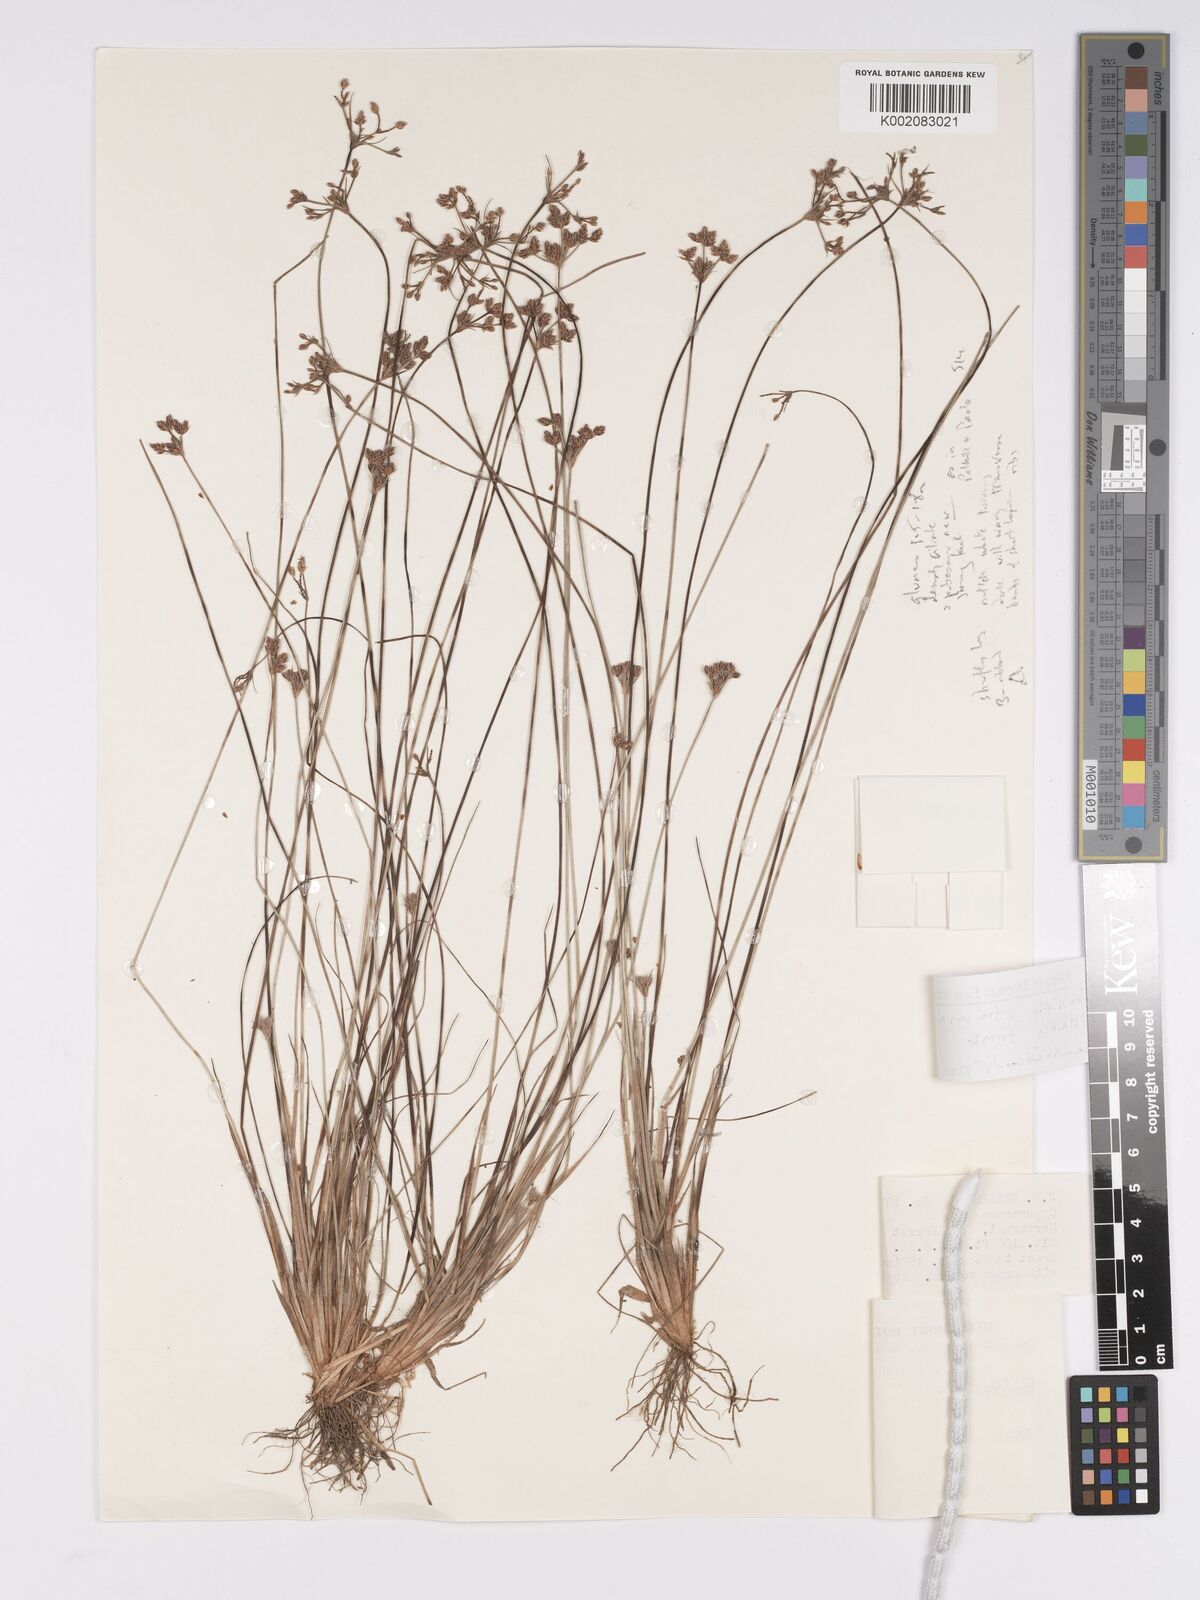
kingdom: Plantae
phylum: Tracheophyta
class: Liliopsida
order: Poales
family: Cyperaceae
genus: Bulbostylis
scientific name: Bulbostylis afroorientalis
